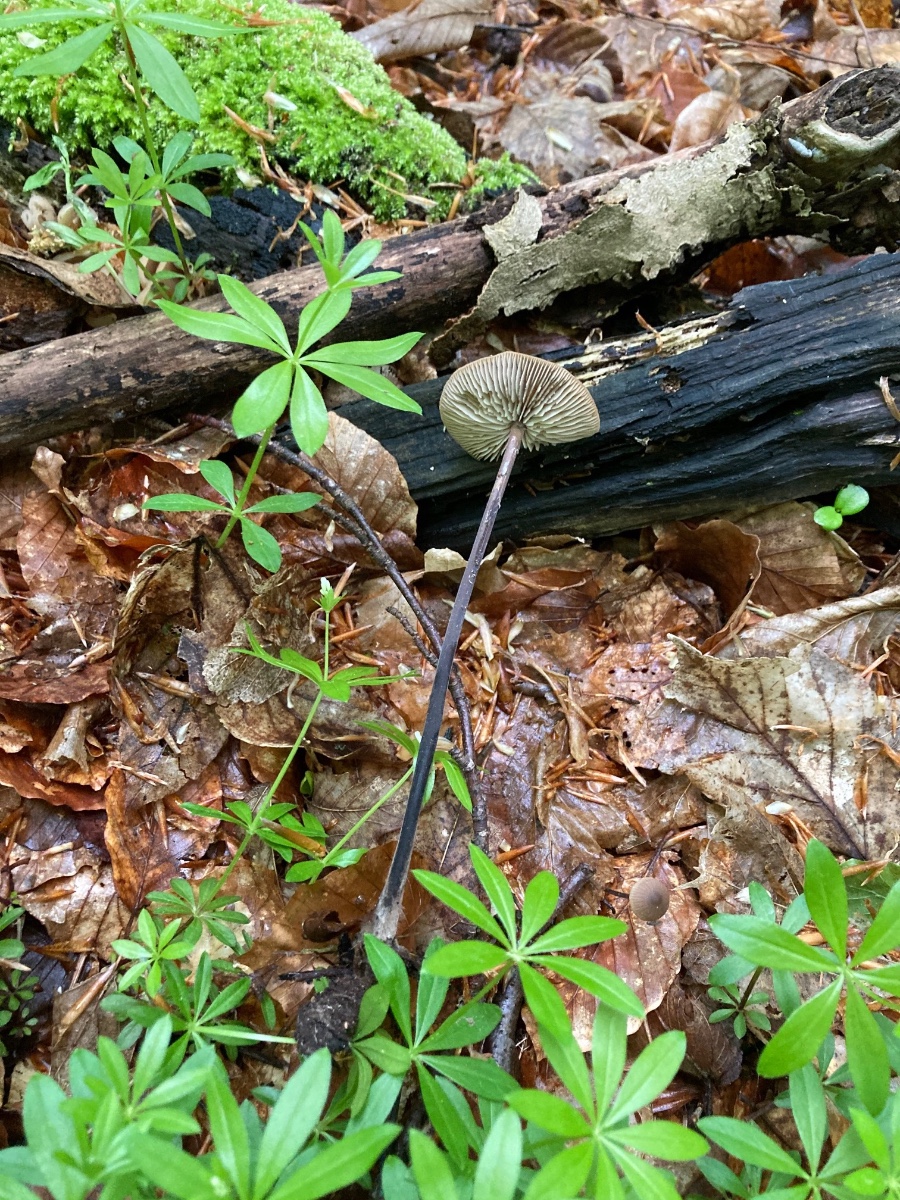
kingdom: Fungi
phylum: Basidiomycota
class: Agaricomycetes
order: Agaricales
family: Omphalotaceae
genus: Mycetinis
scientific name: Mycetinis alliaceus
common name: stor løghat
